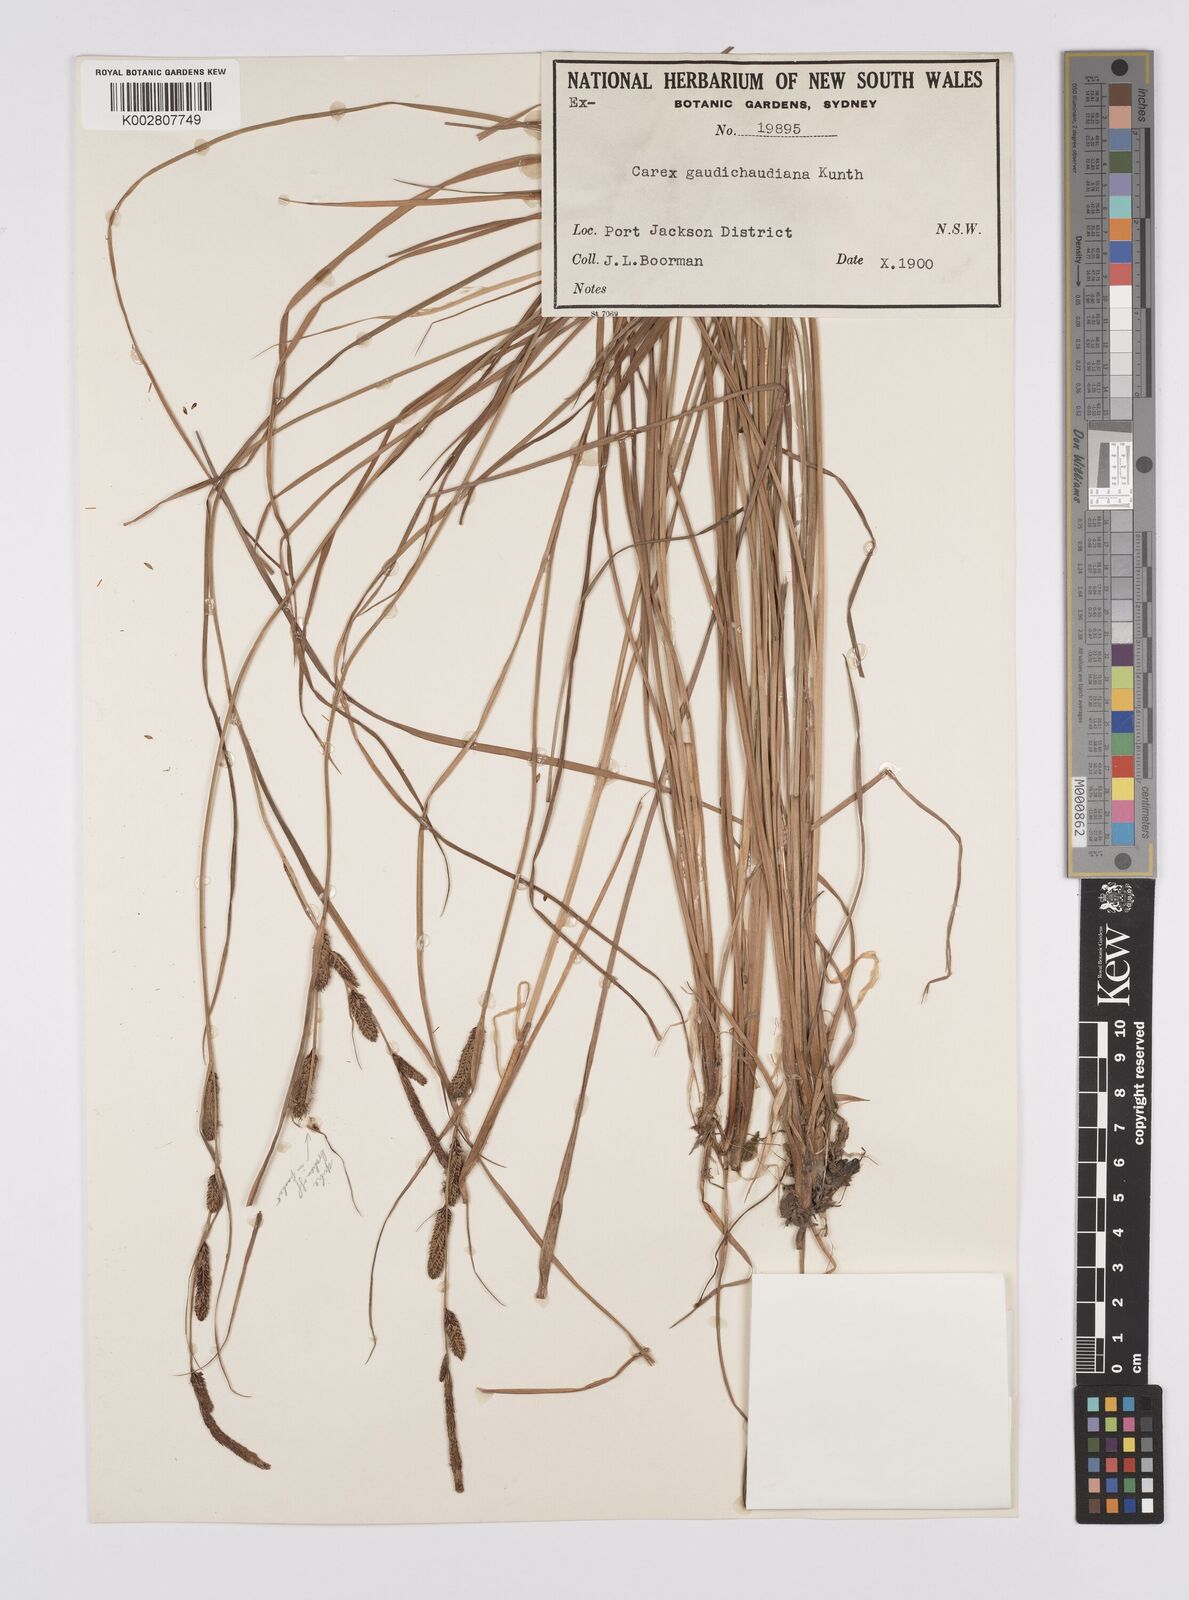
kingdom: Plantae
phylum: Tracheophyta
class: Liliopsida
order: Poales
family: Cyperaceae
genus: Carex
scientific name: Carex gaudichaudiana
